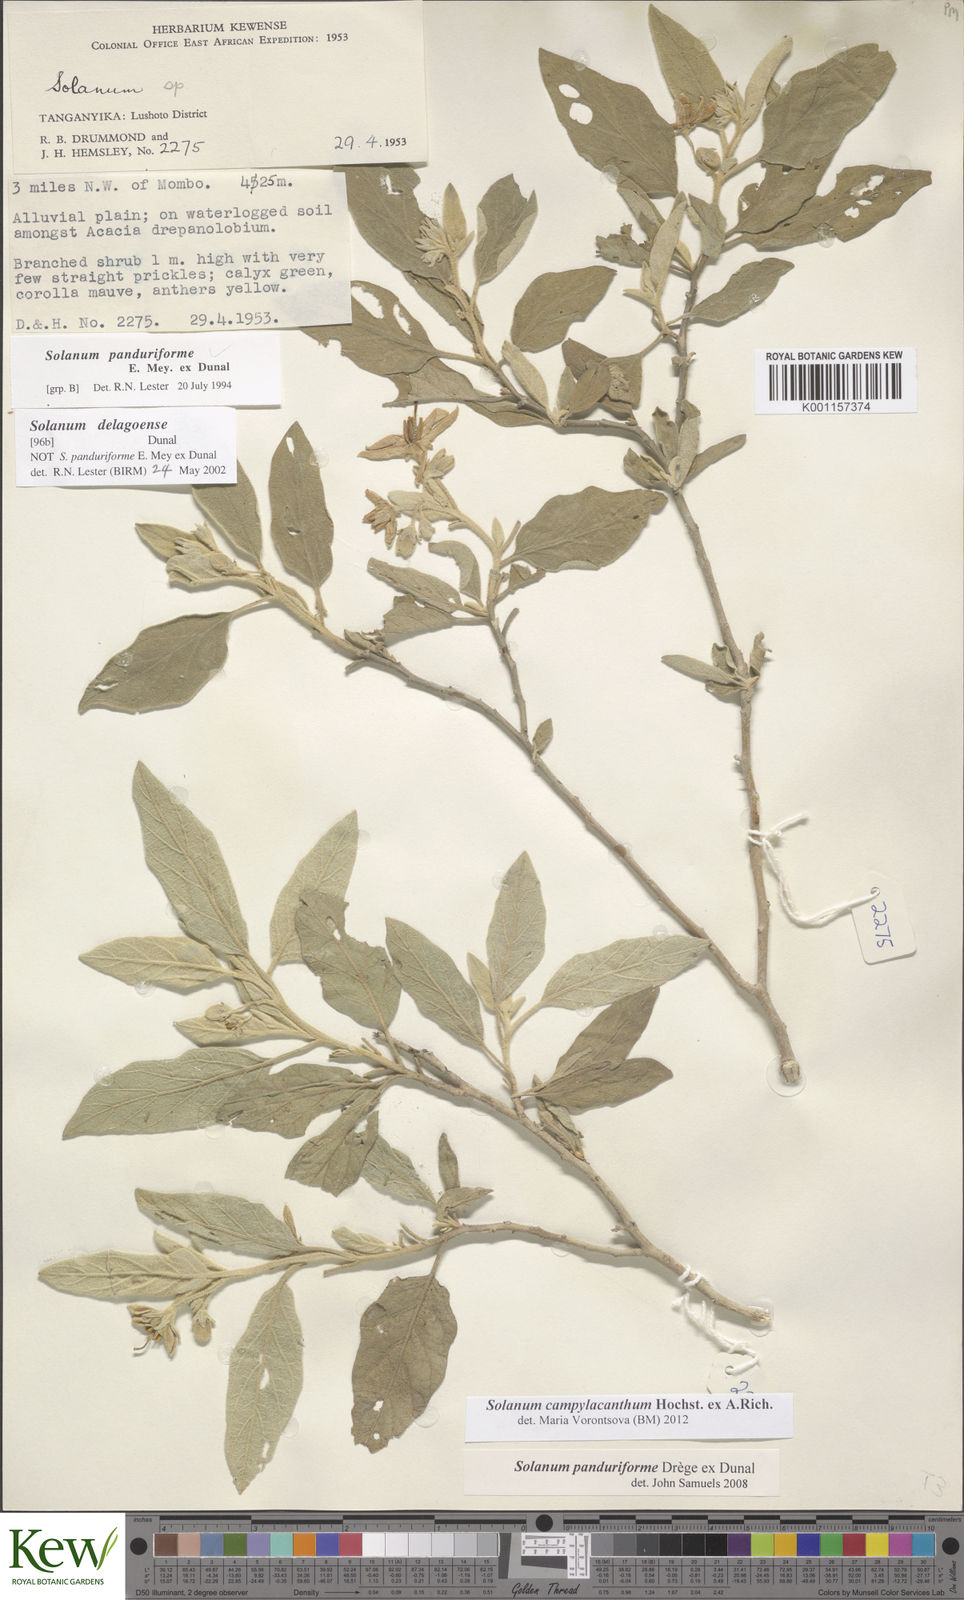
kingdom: Plantae
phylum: Tracheophyta
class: Magnoliopsida
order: Solanales
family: Solanaceae
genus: Solanum
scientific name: Solanum campylacanthum
